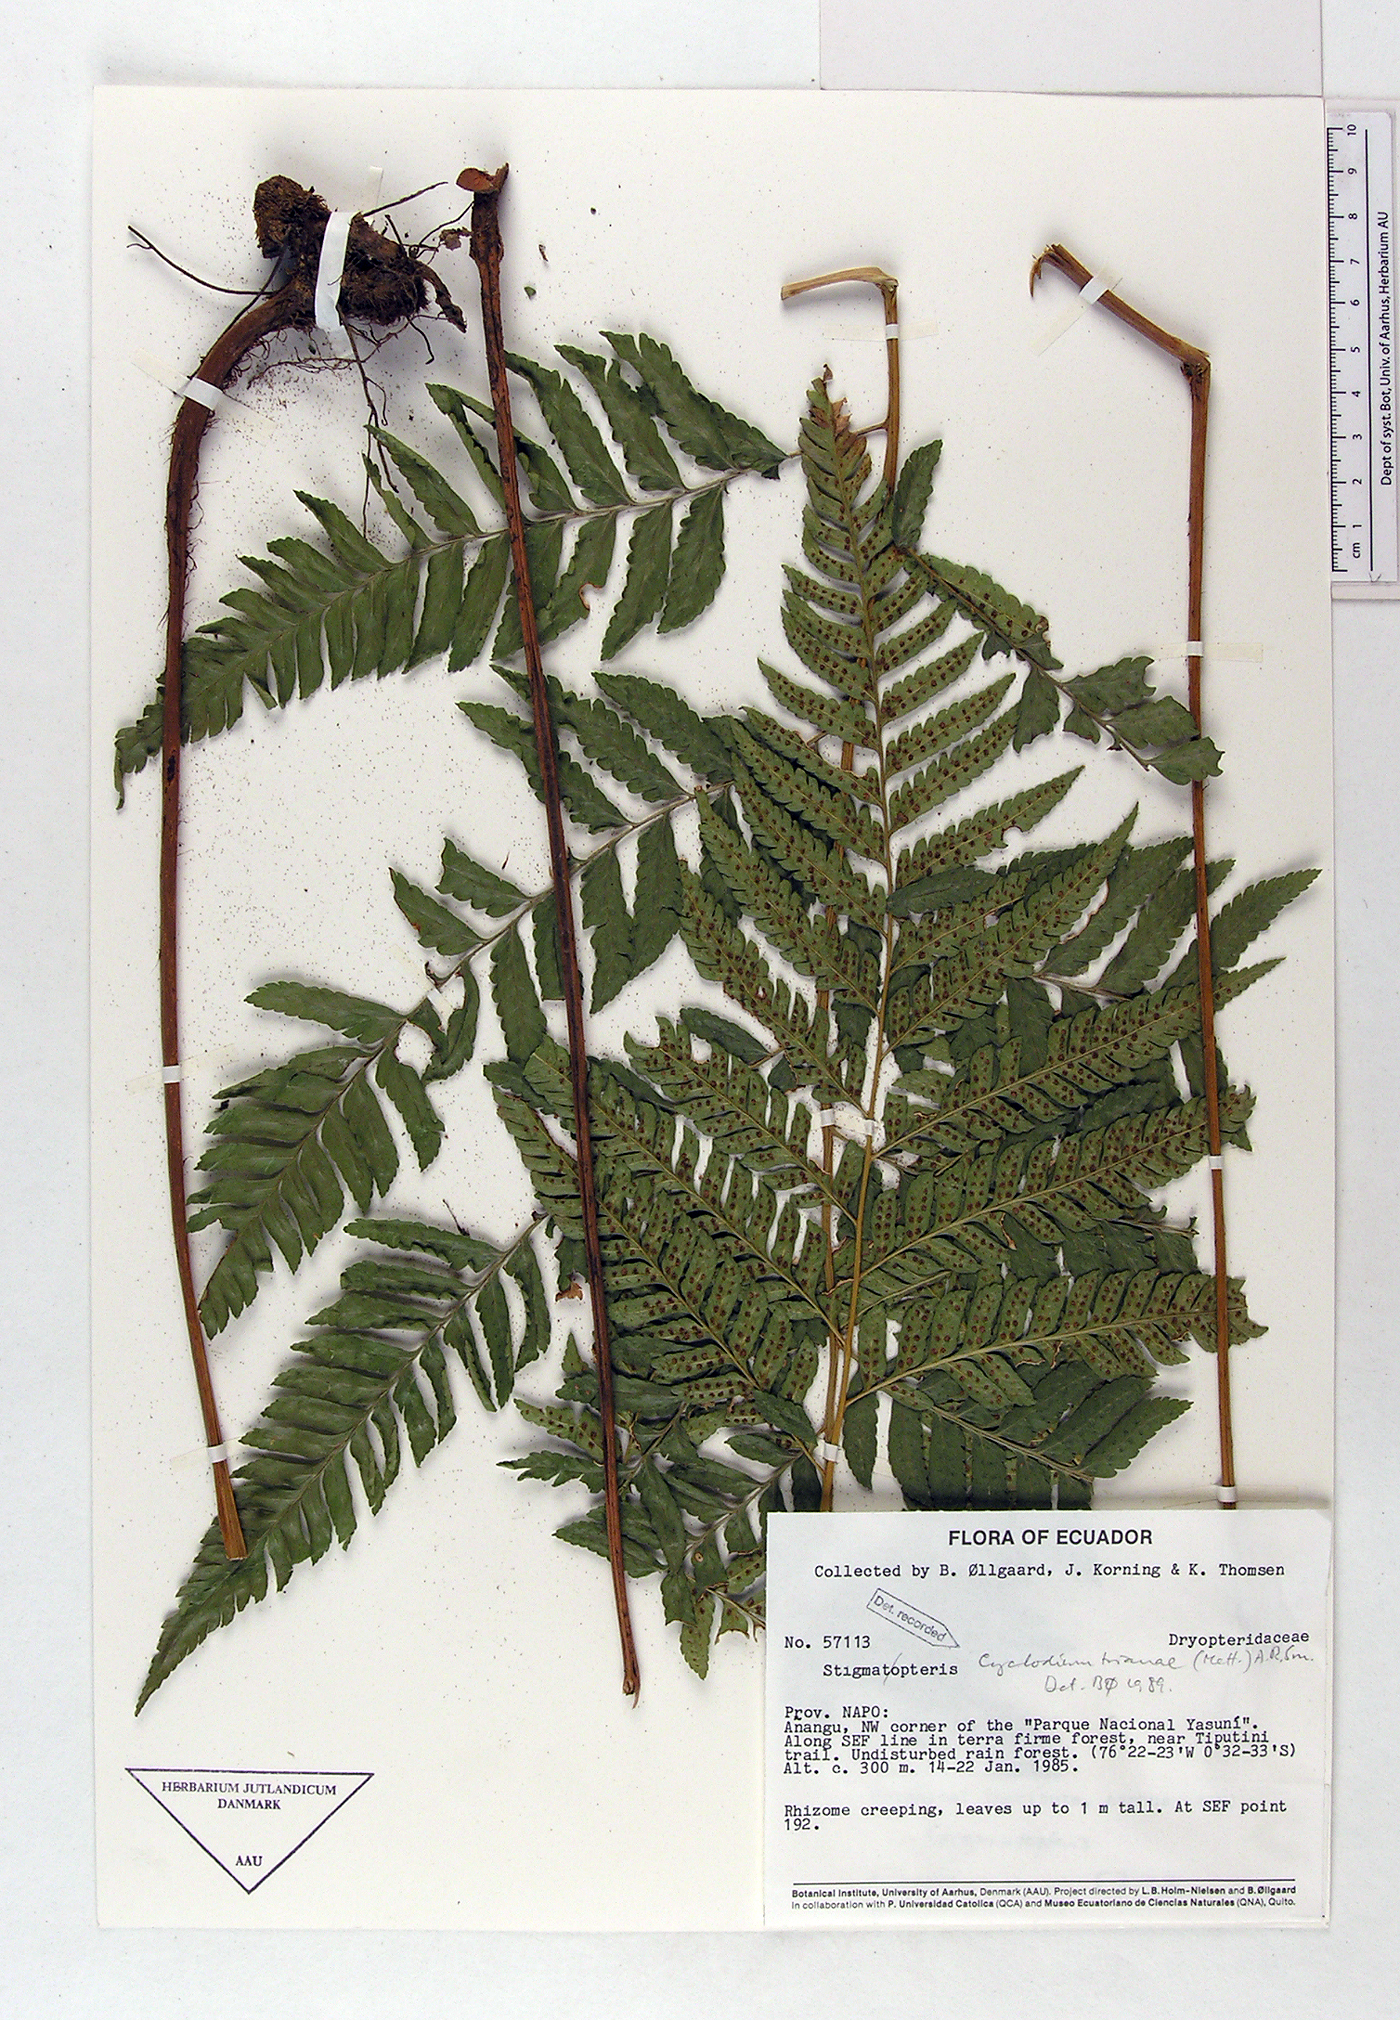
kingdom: Plantae
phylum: Tracheophyta
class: Polypodiopsida
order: Polypodiales
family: Dryopteridaceae
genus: Cyclodium
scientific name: Cyclodium trianae
